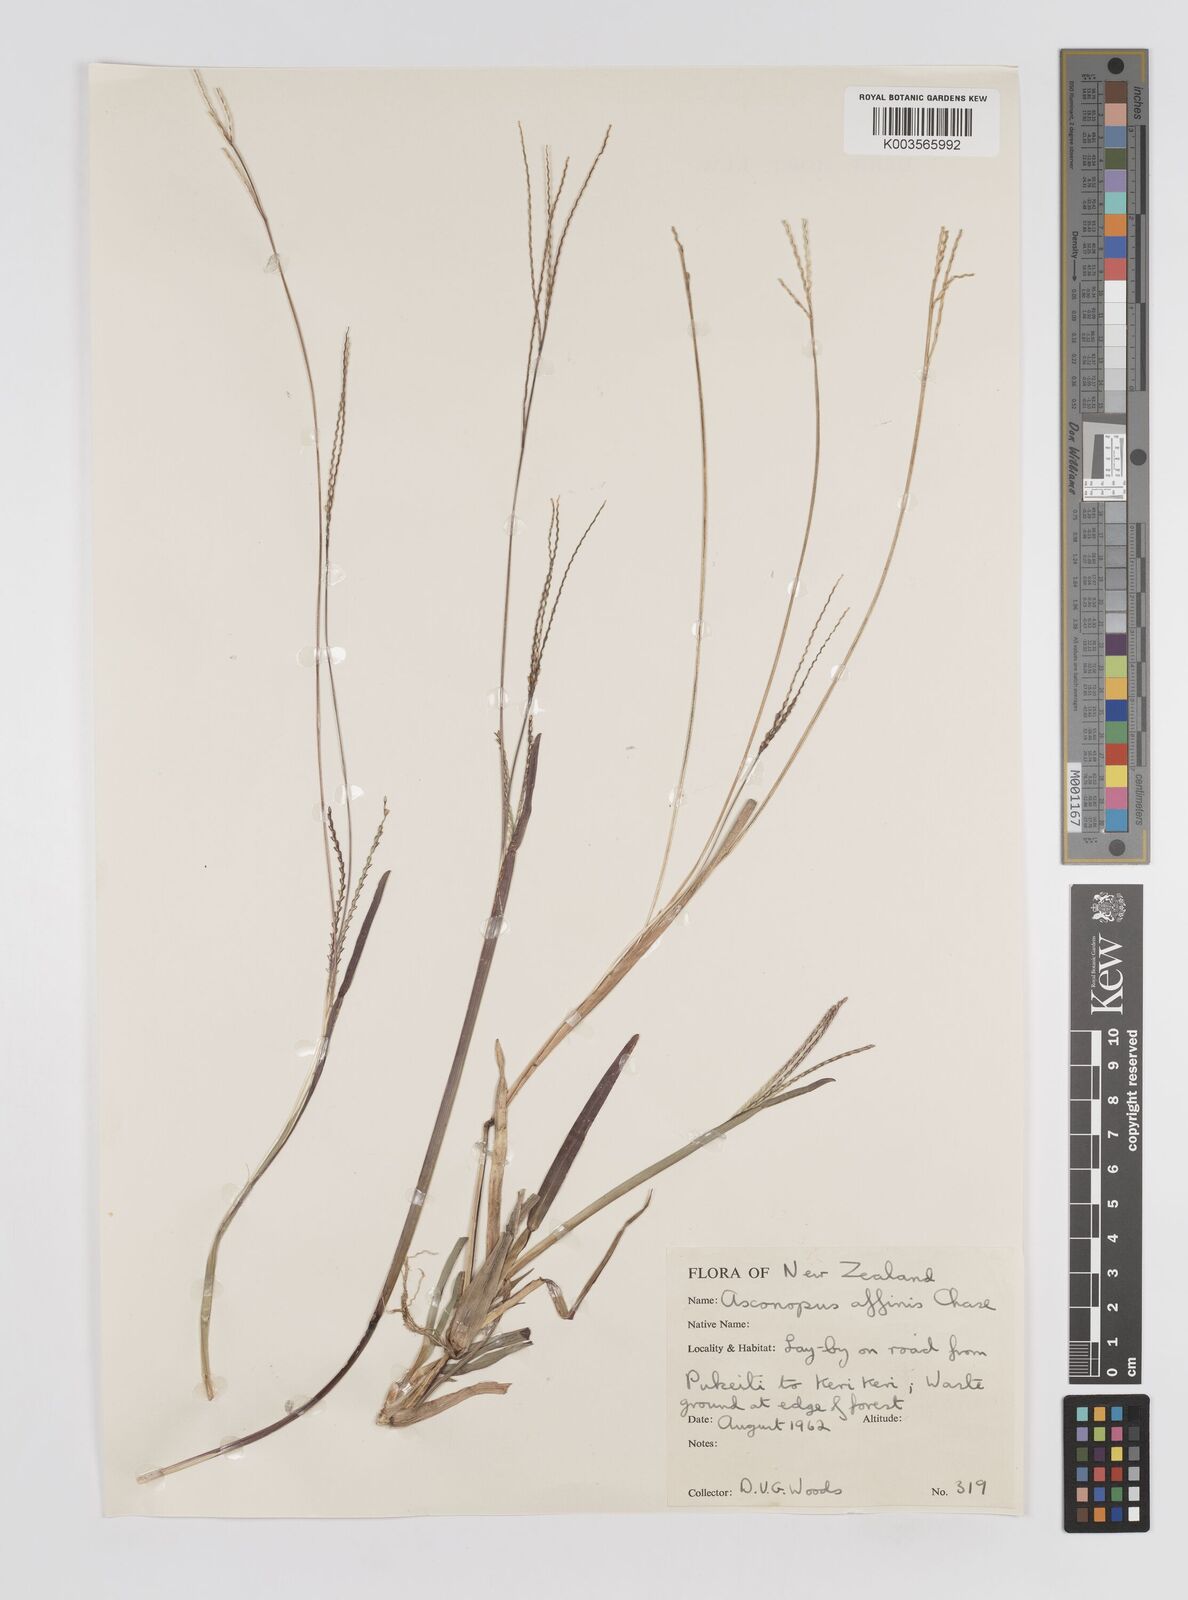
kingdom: Plantae
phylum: Tracheophyta
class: Liliopsida
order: Poales
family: Poaceae
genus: Axonopus
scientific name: Axonopus fissifolius
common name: Common carpetgrass
